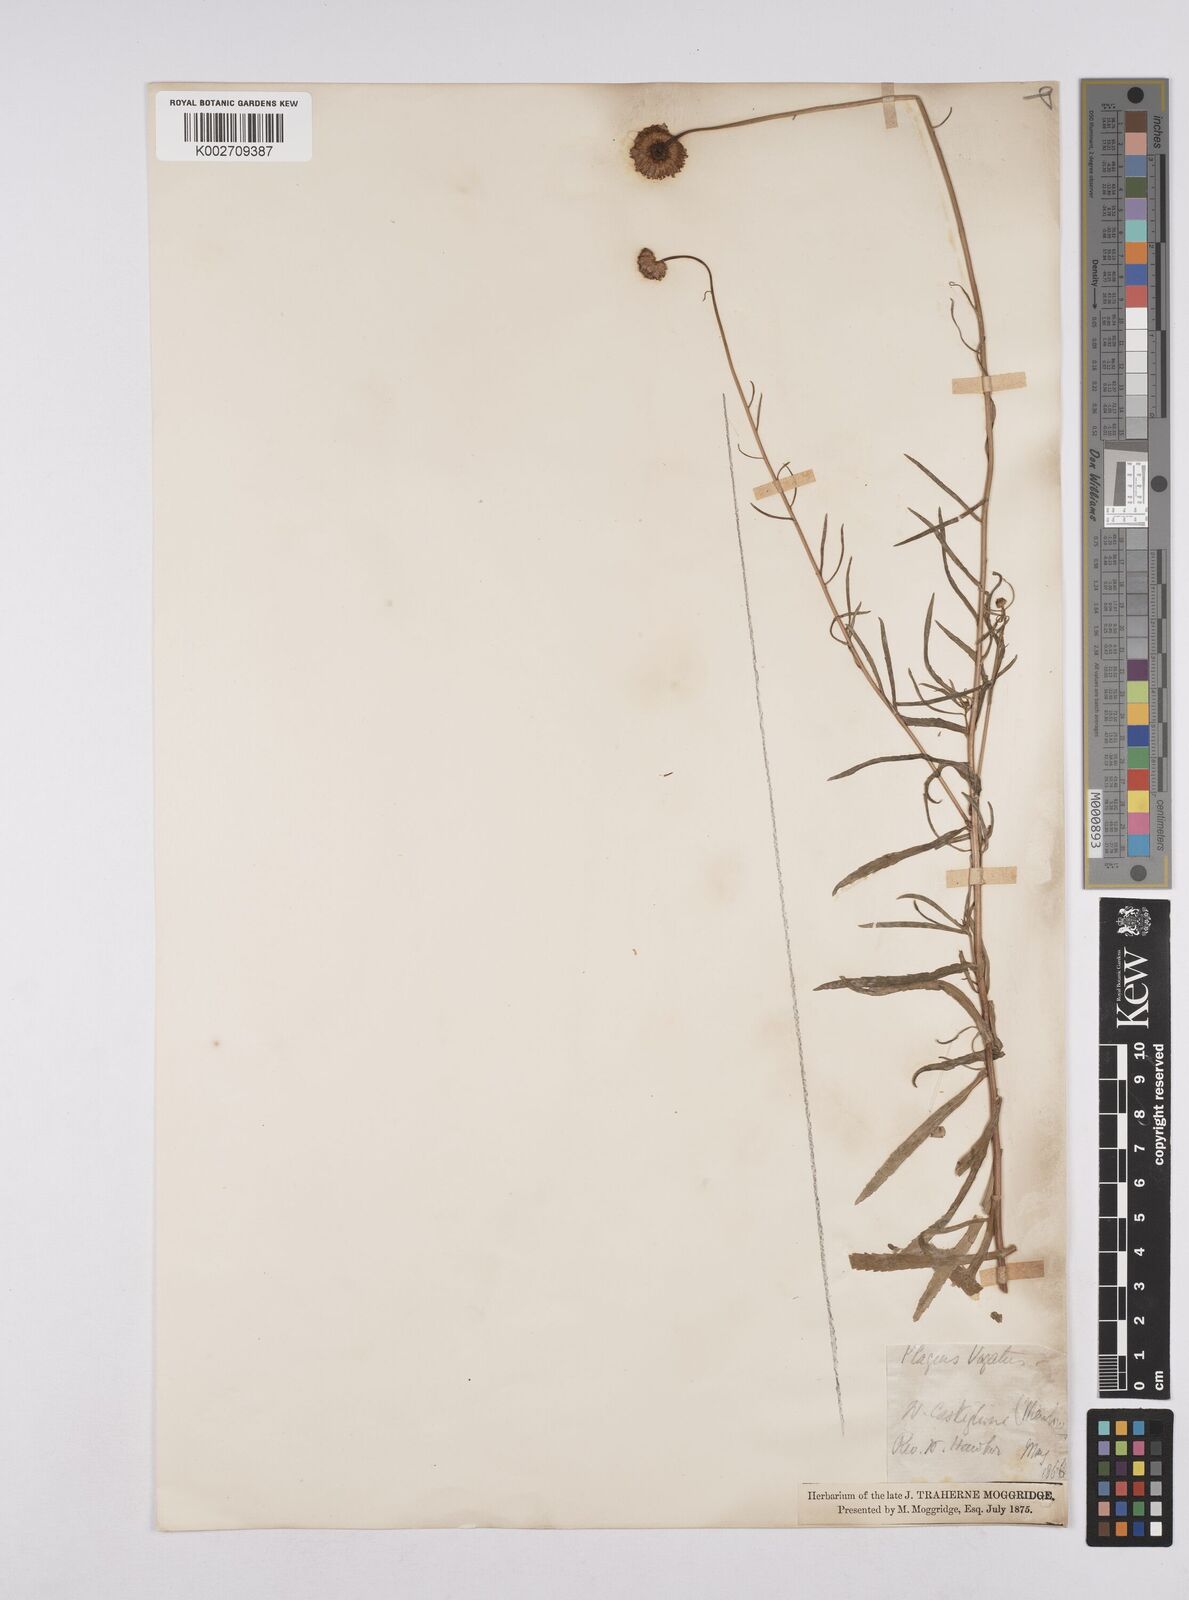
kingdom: Plantae
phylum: Tracheophyta
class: Magnoliopsida
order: Asterales
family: Asteraceae
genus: Leucanthemum
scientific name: Leucanthemum vulgare
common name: Oxeye daisy
